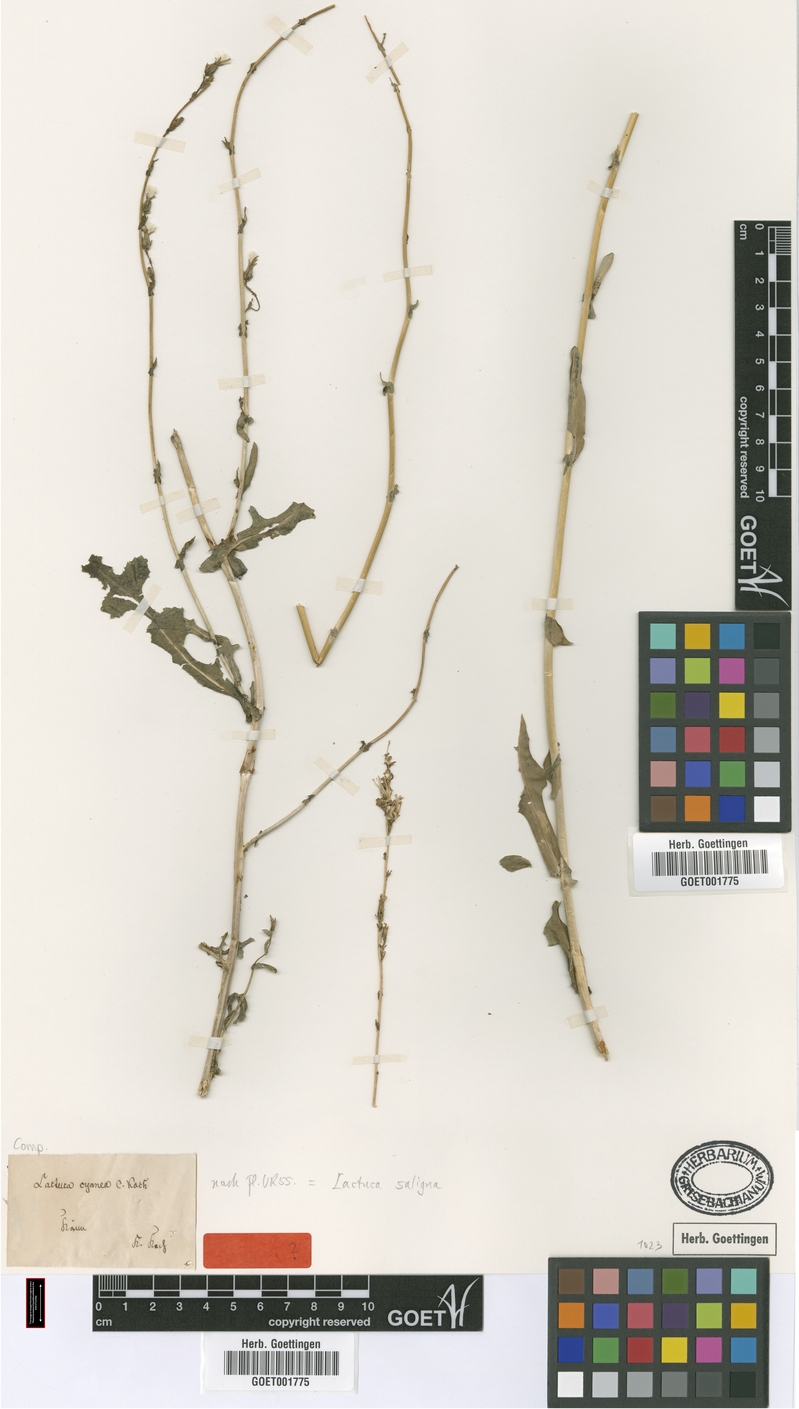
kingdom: Plantae
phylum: Tracheophyta
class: Magnoliopsida
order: Asterales
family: Asteraceae
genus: Lactuca
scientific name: Lactuca saligna
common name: Wild lettuce
